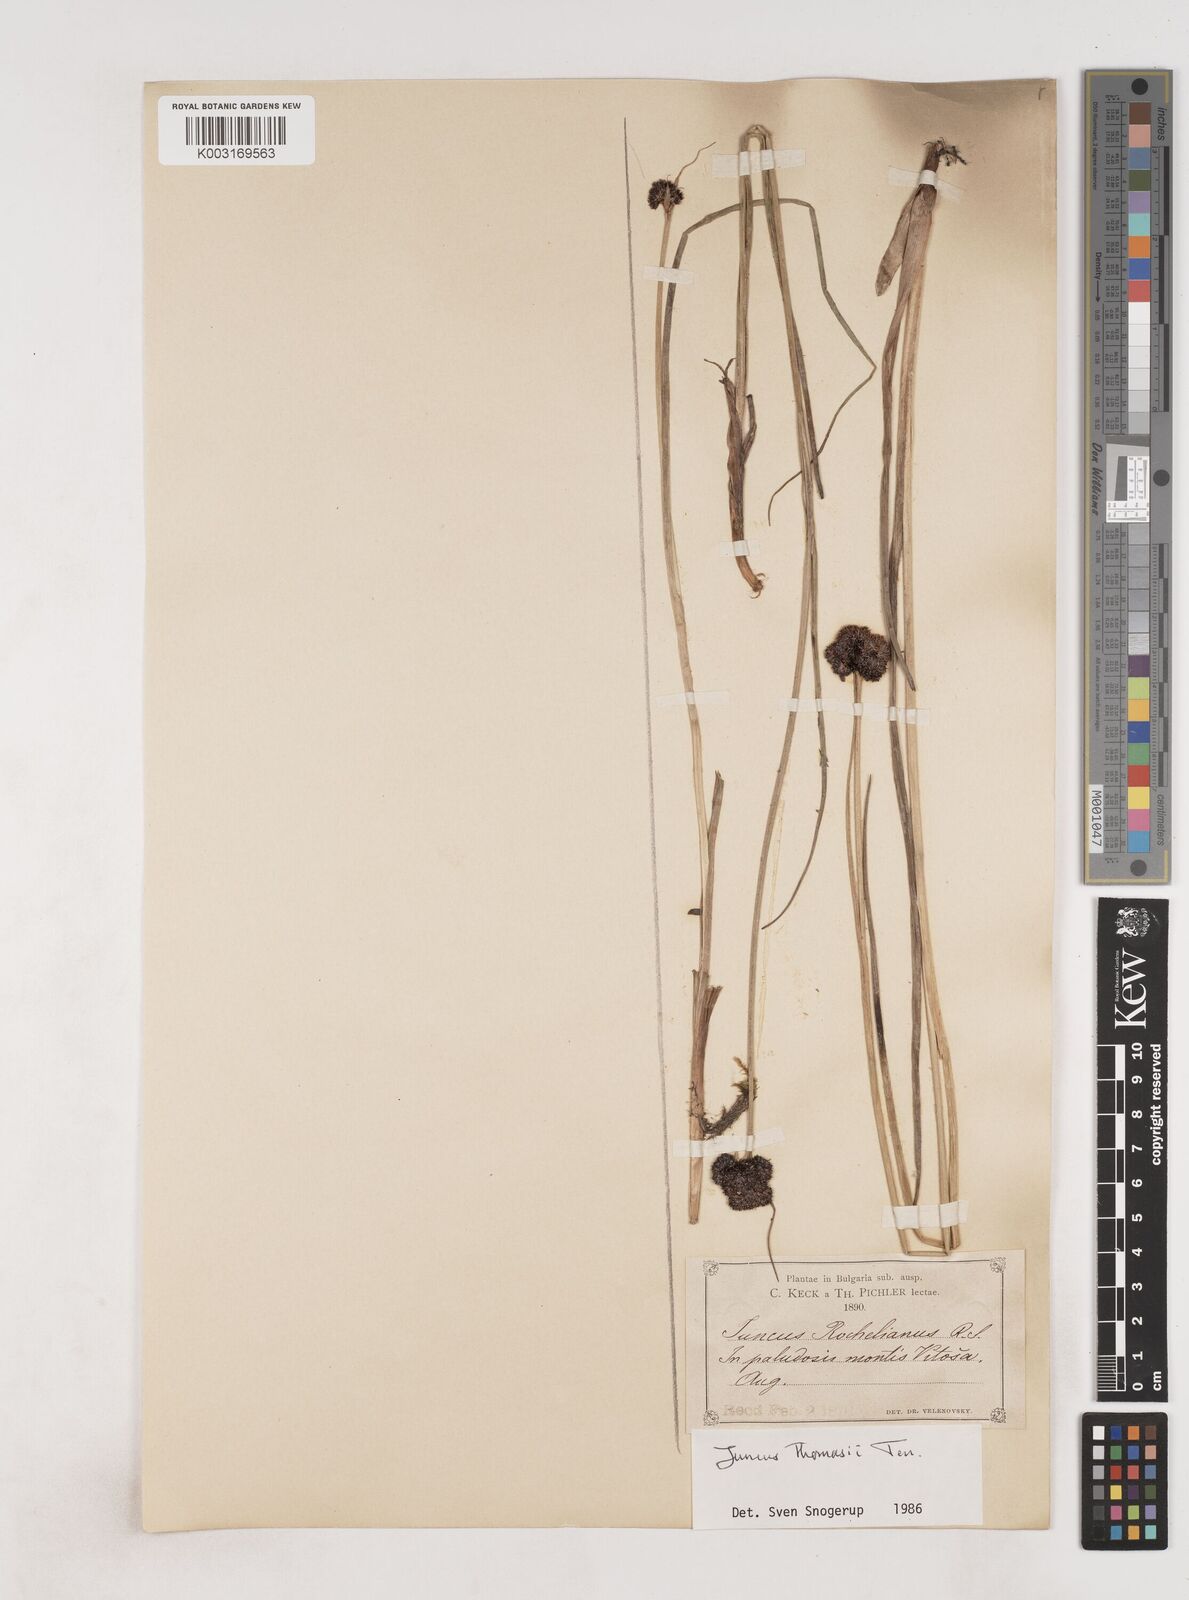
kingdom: Plantae
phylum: Tracheophyta
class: Liliopsida
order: Poales
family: Juncaceae
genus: Juncus
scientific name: Juncus alpigenus
